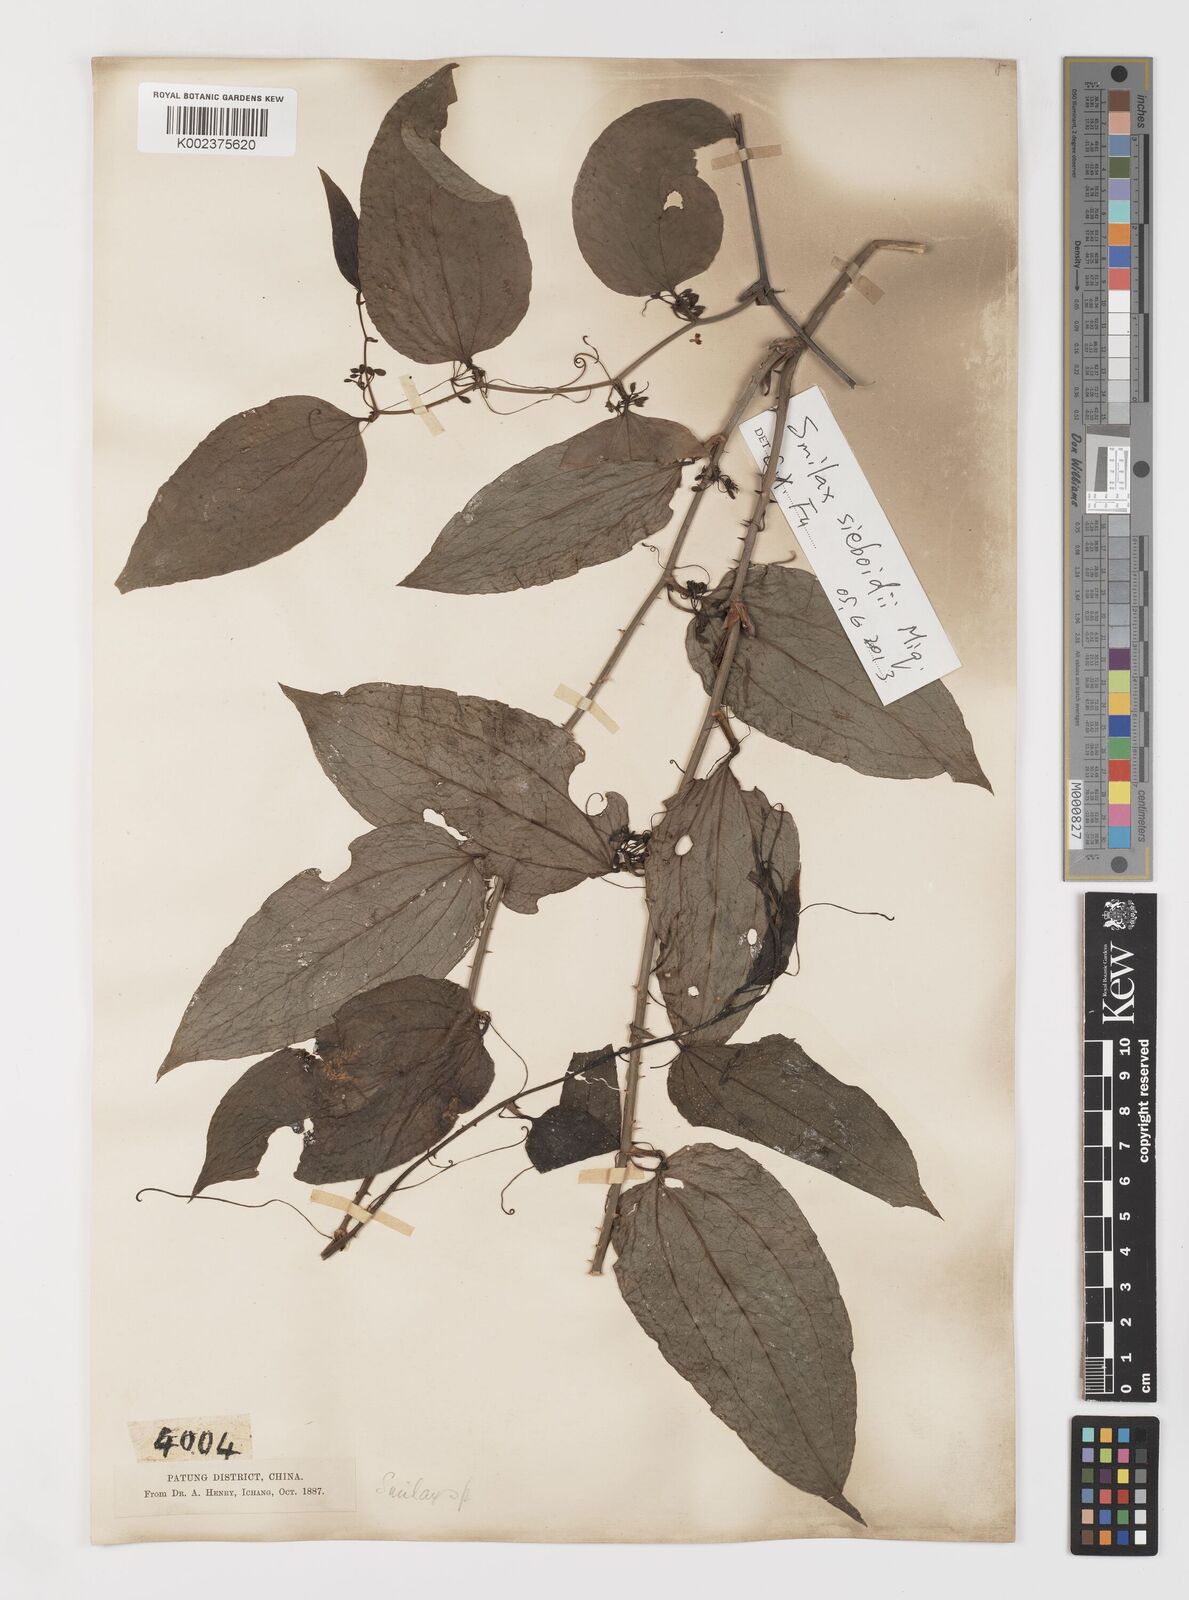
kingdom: Plantae
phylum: Tracheophyta
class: Liliopsida
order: Liliales
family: Smilacaceae
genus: Smilax
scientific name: Smilax scobinicaulis
